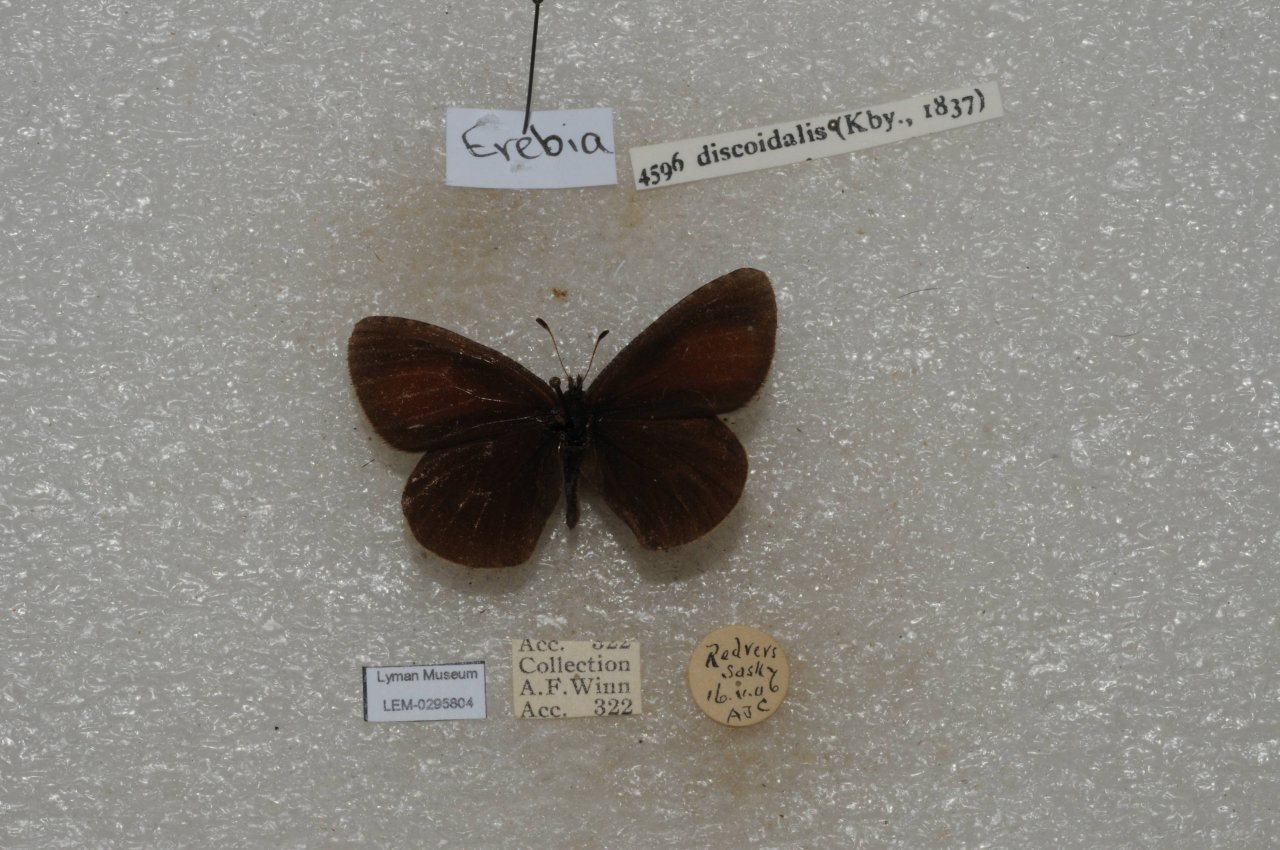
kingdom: Animalia
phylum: Arthropoda
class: Insecta
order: Lepidoptera
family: Nymphalidae
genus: Erebia
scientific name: Erebia discoidalis
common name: Red-disked Alpine
